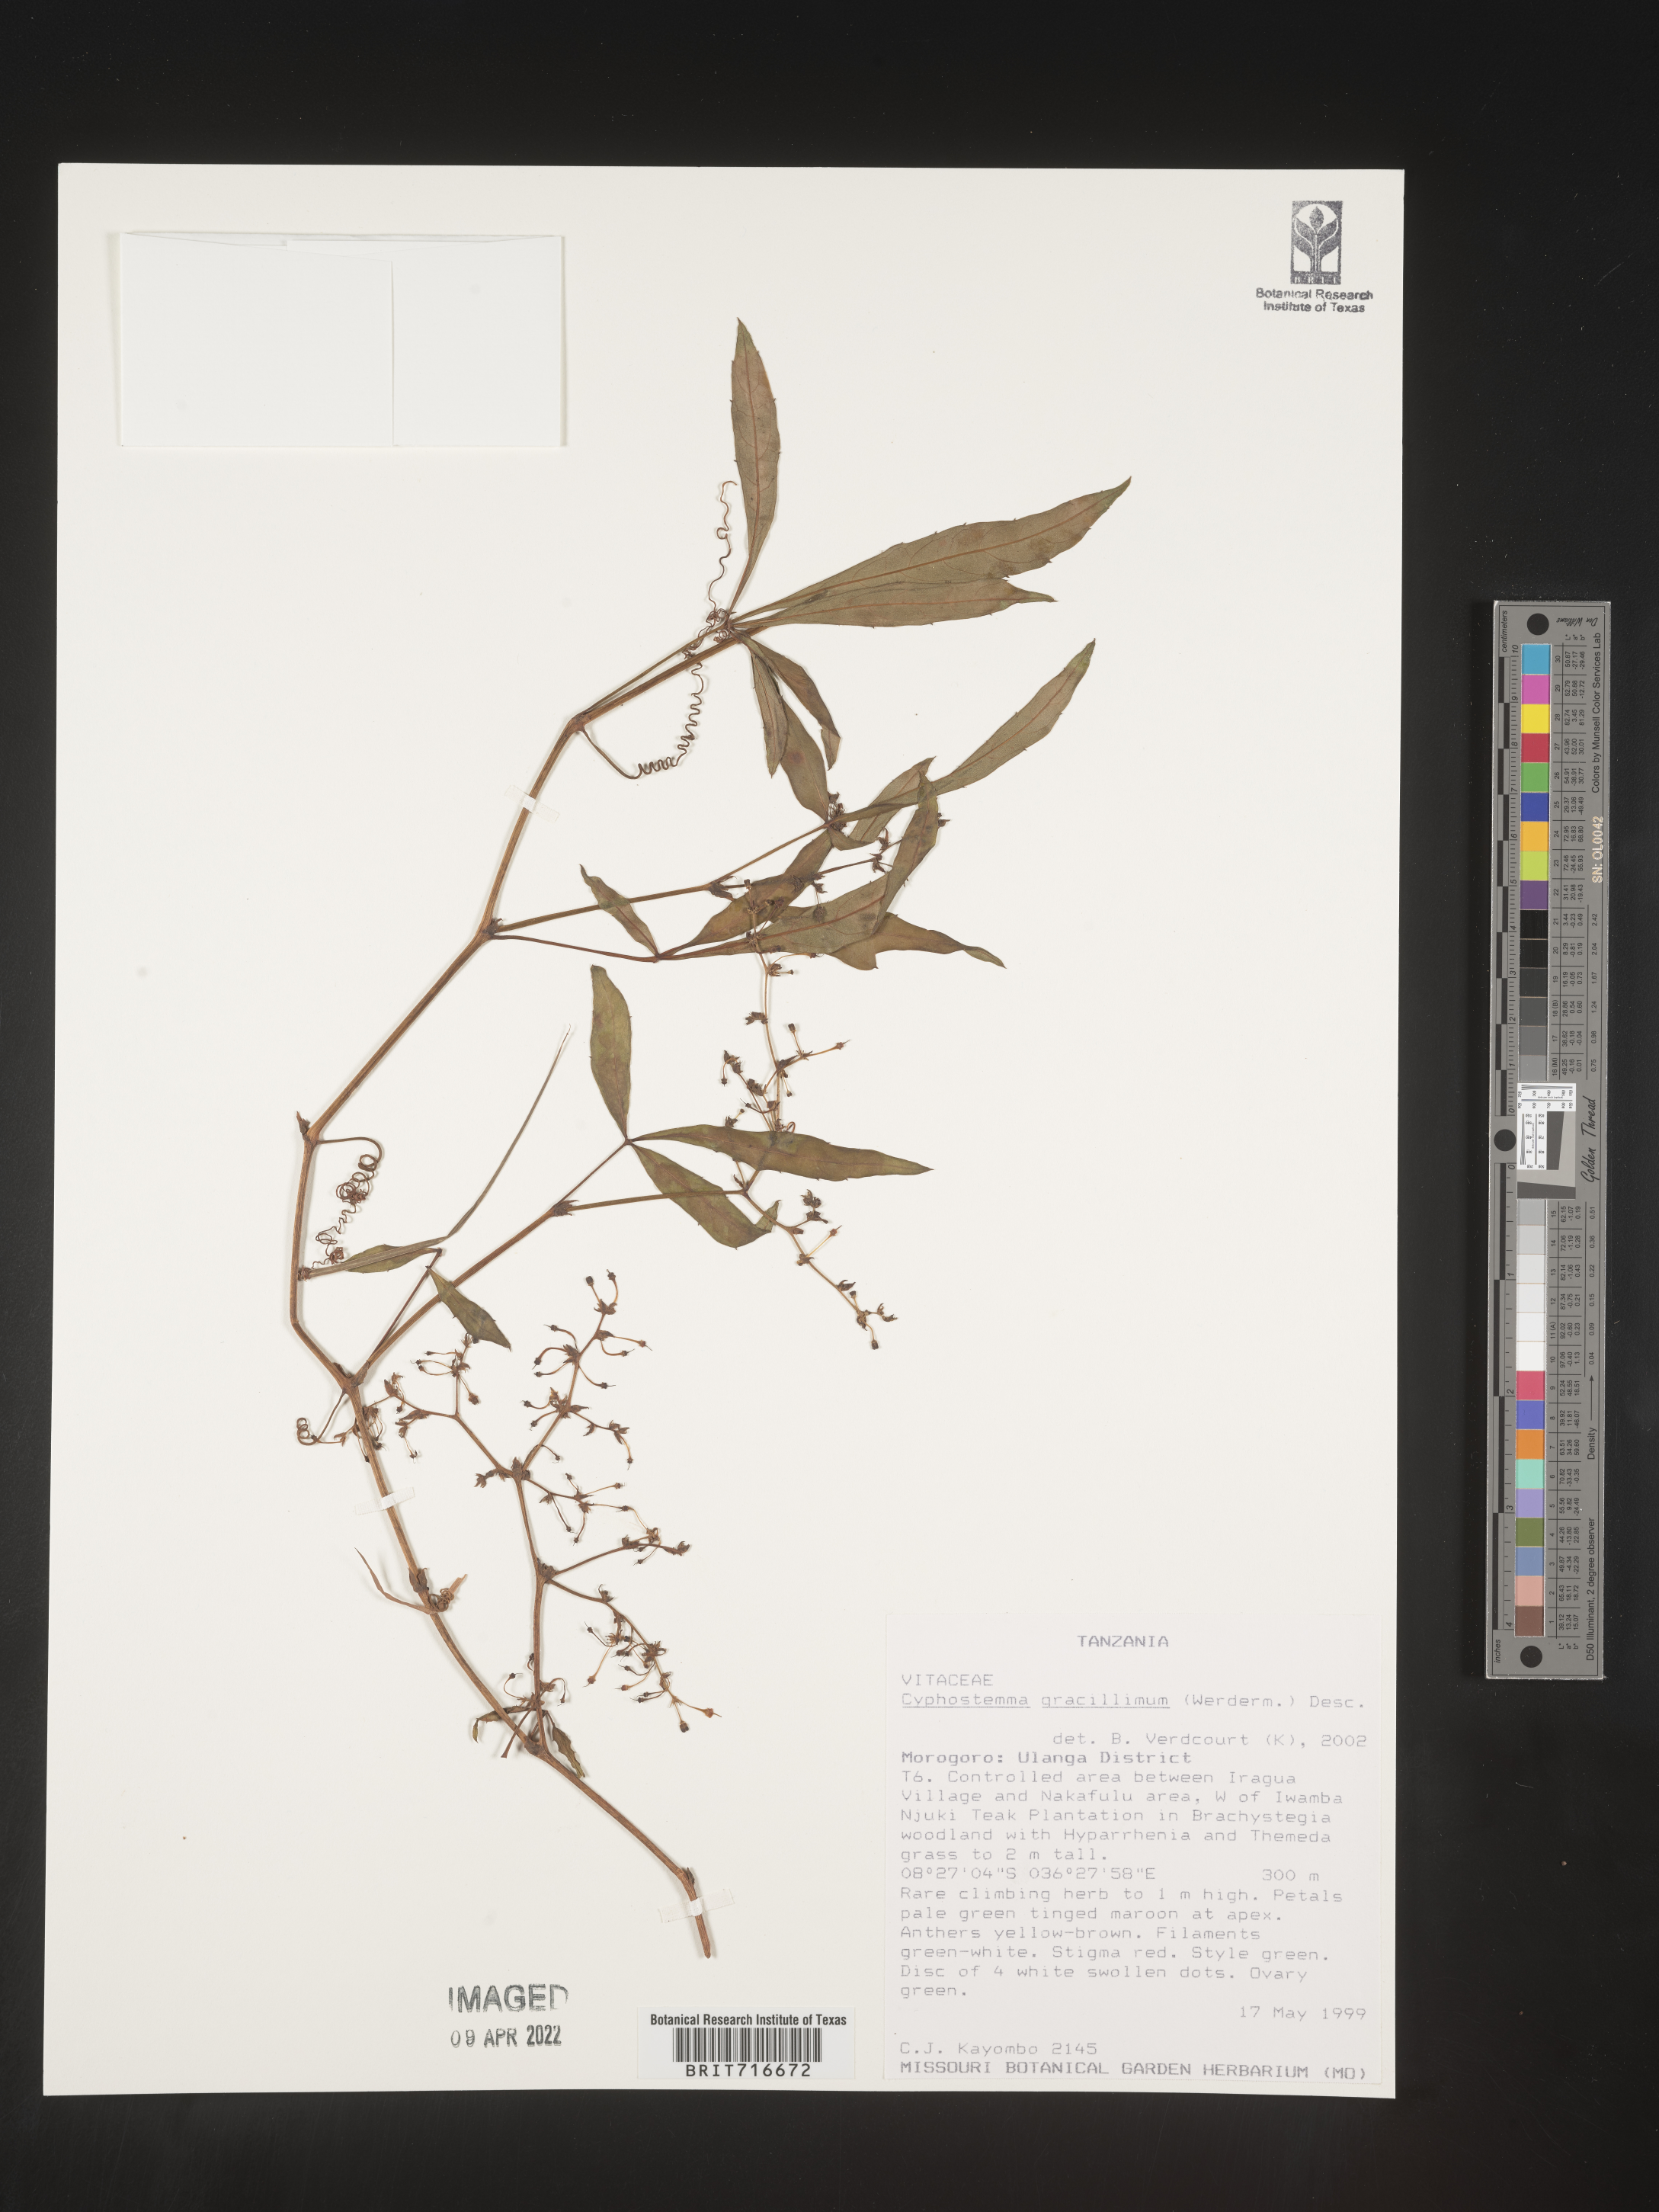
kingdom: Plantae
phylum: Tracheophyta
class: Magnoliopsida
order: Vitales
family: Vitaceae
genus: Cyphostemma
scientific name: Cyphostemma
